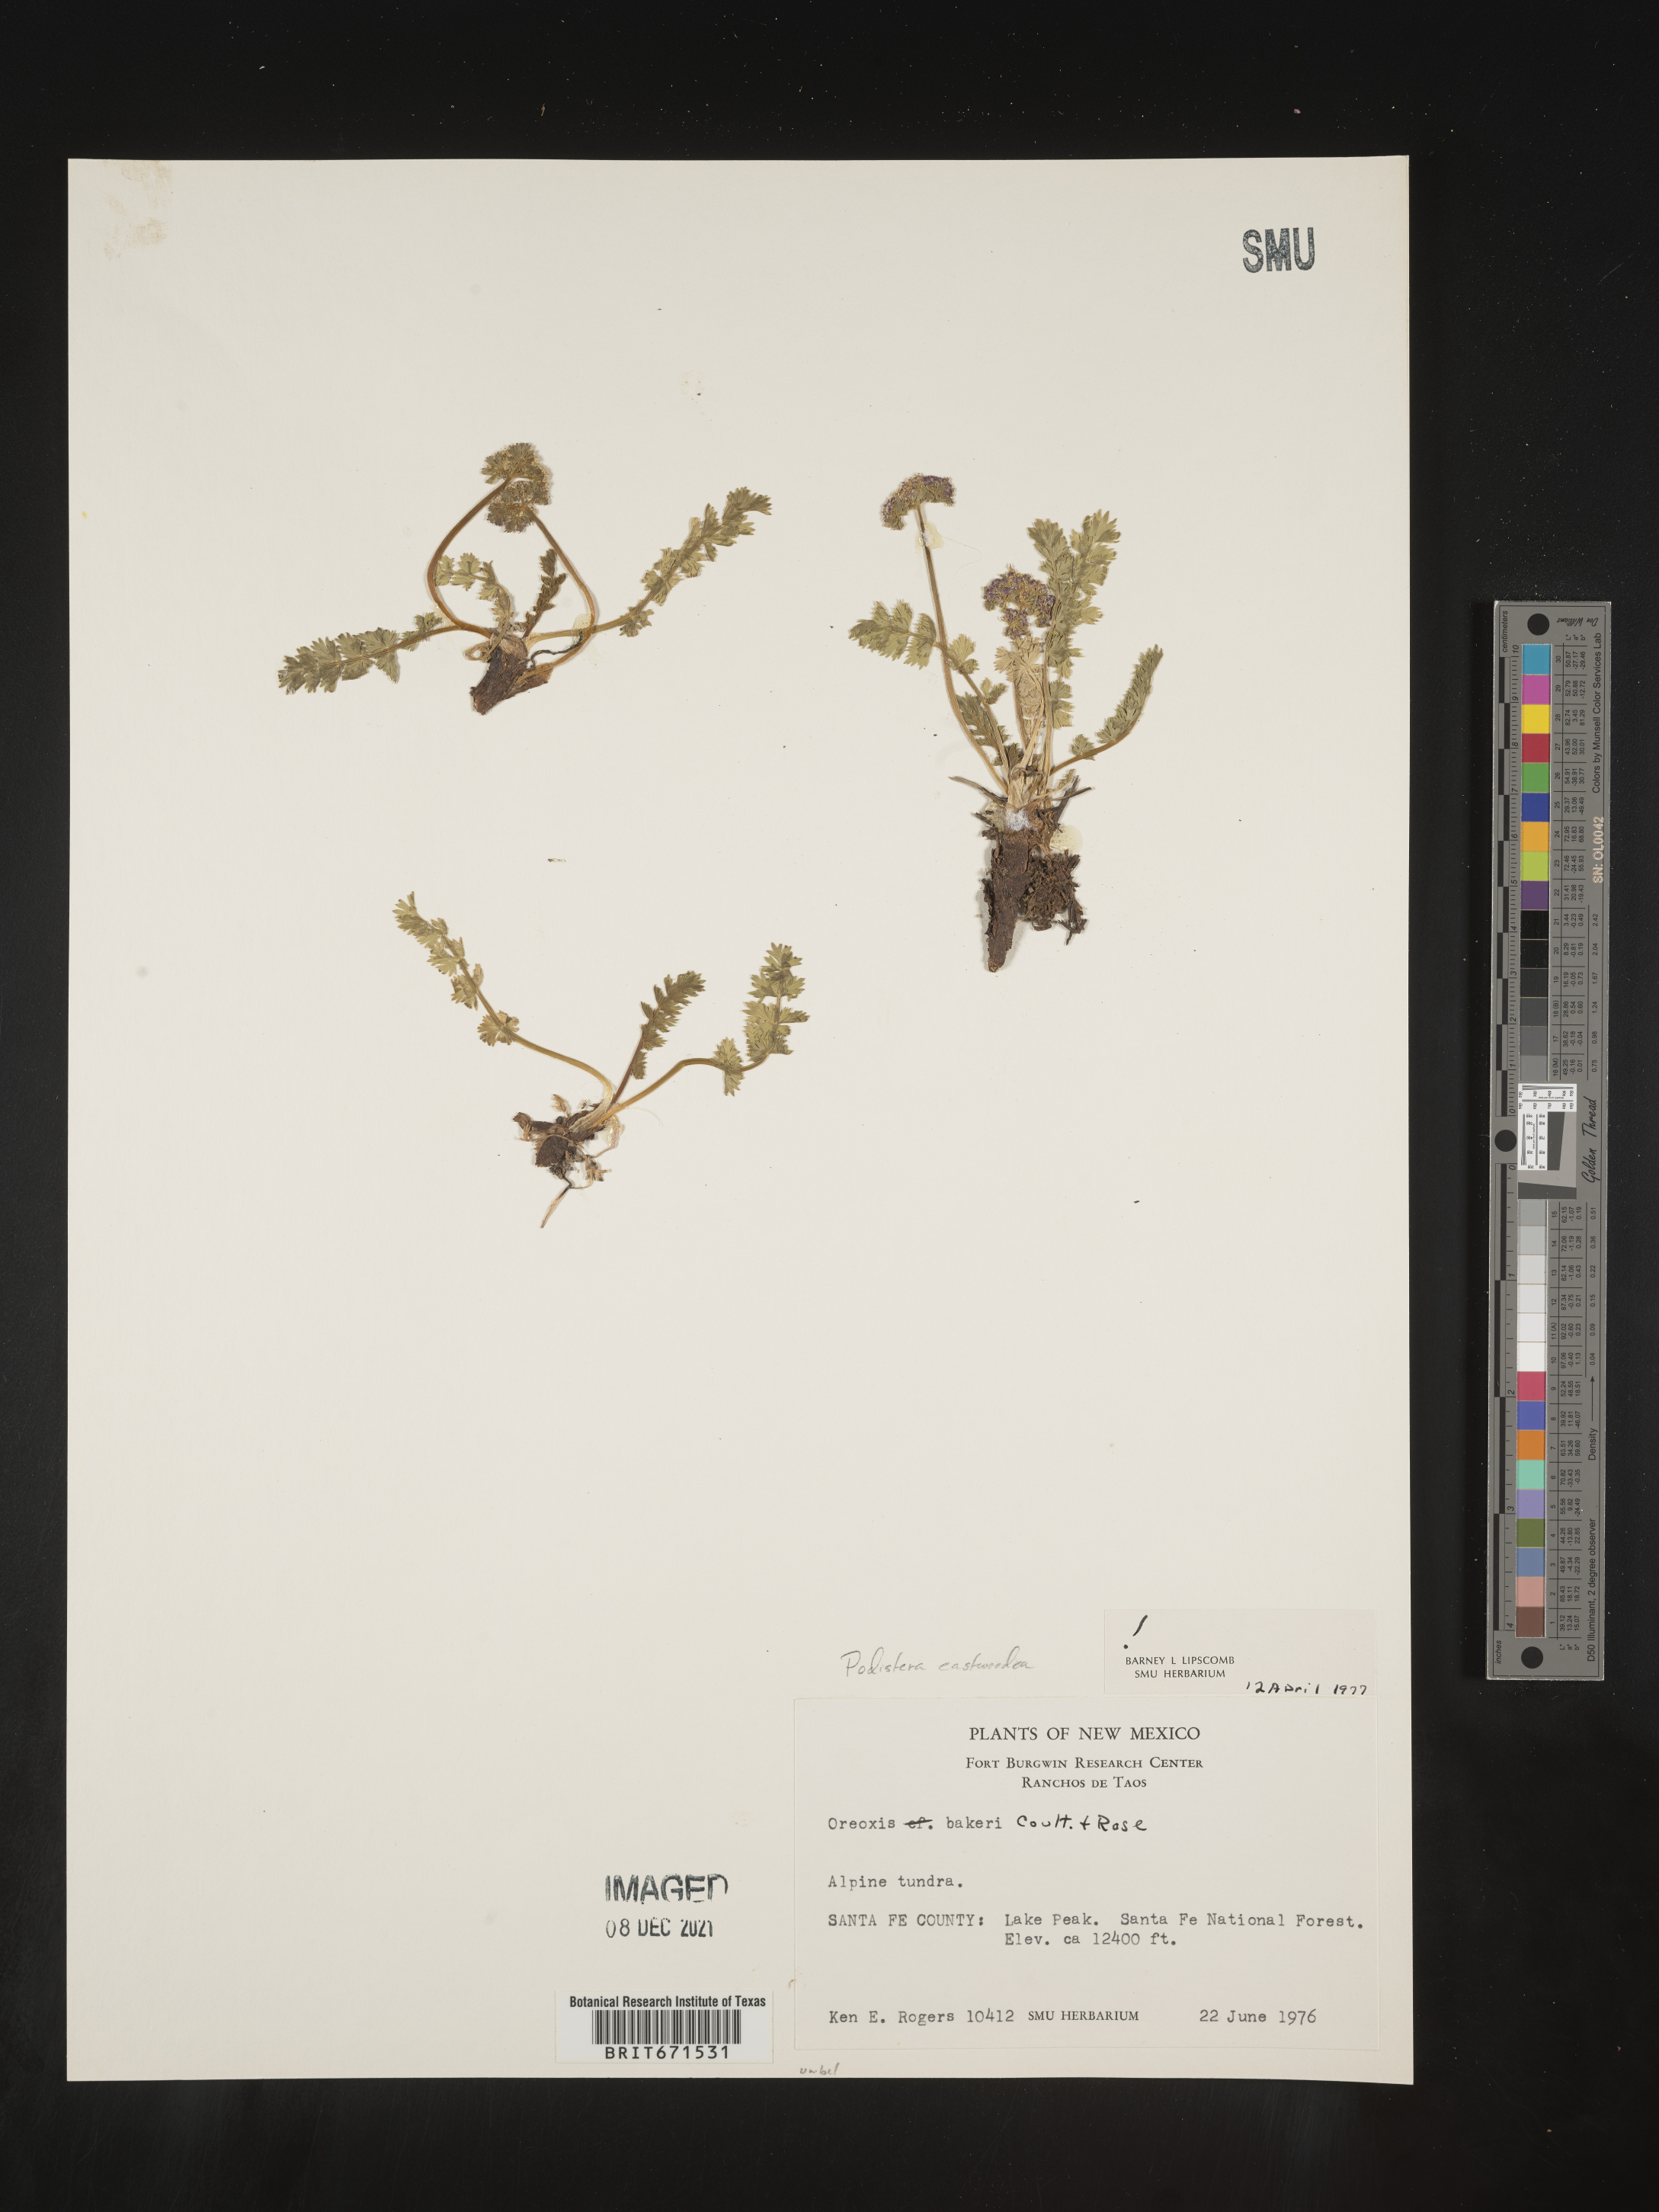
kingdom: Plantae
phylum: Tracheophyta
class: Magnoliopsida
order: Apiales
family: Apiaceae
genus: Podistera
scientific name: Podistera
